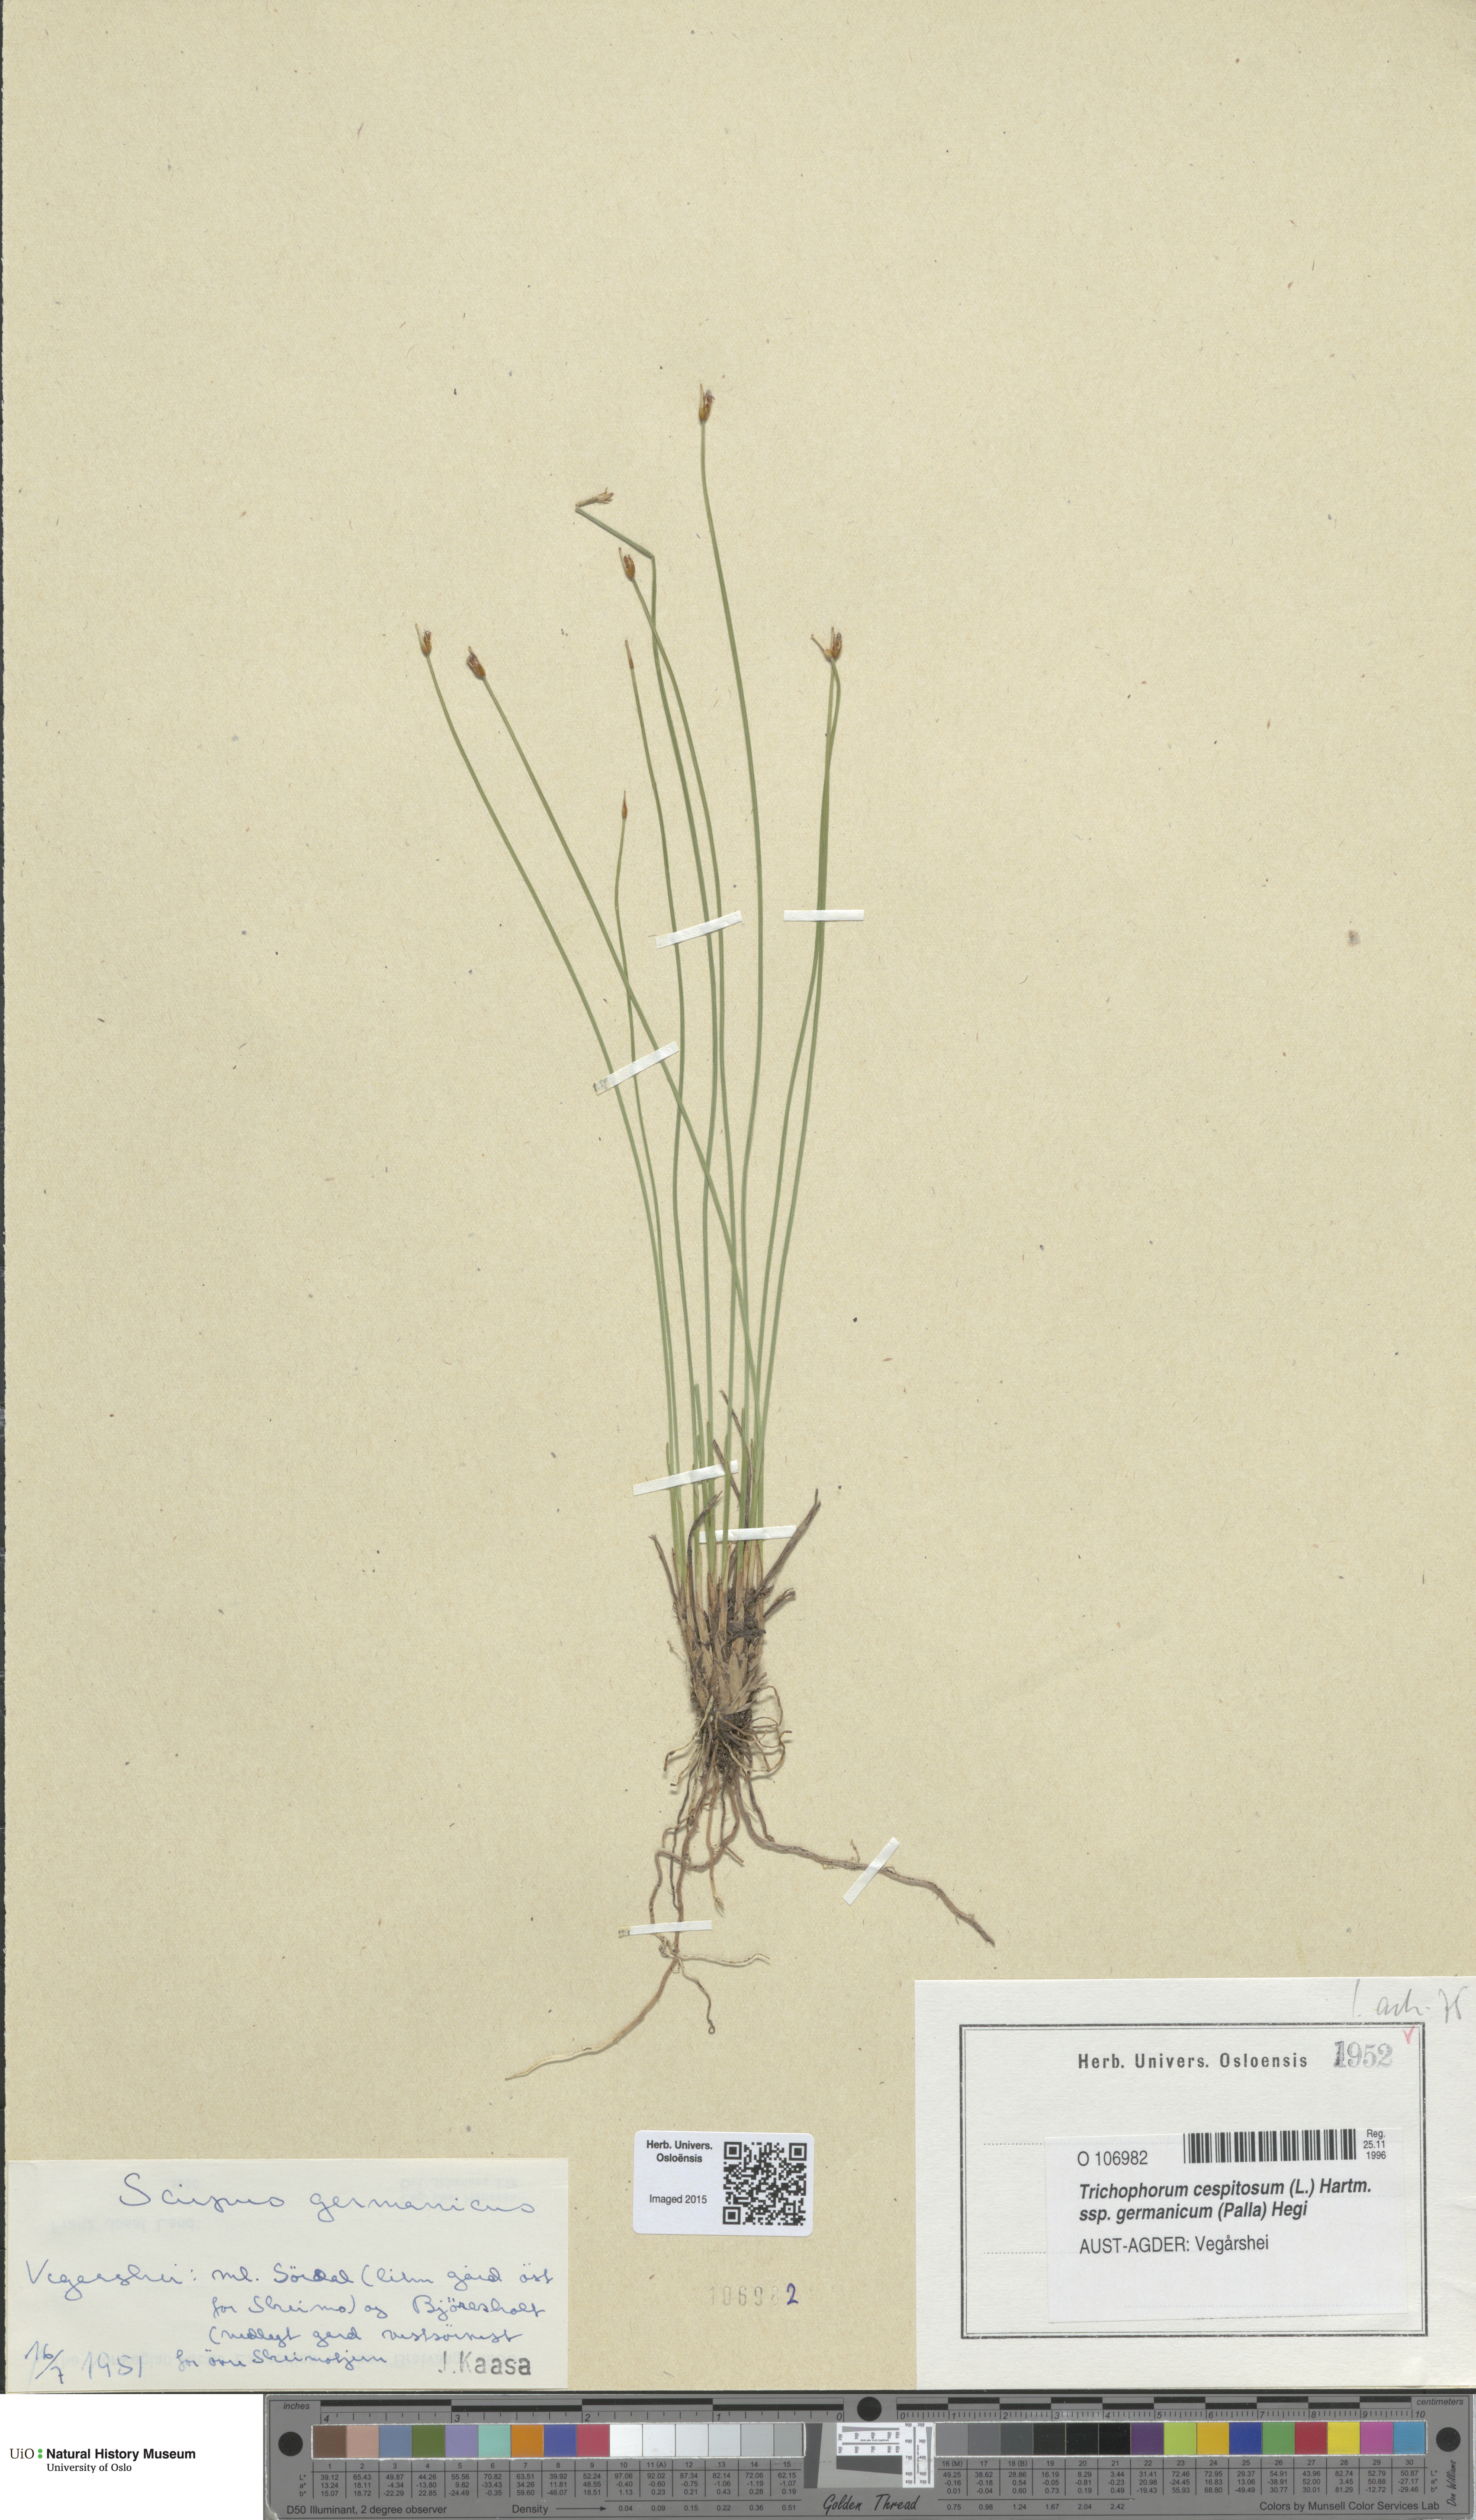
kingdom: Plantae
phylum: Tracheophyta
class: Liliopsida
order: Poales
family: Cyperaceae
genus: Trichophorum
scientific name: Trichophorum cespitosum
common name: Cespitose bulrush
